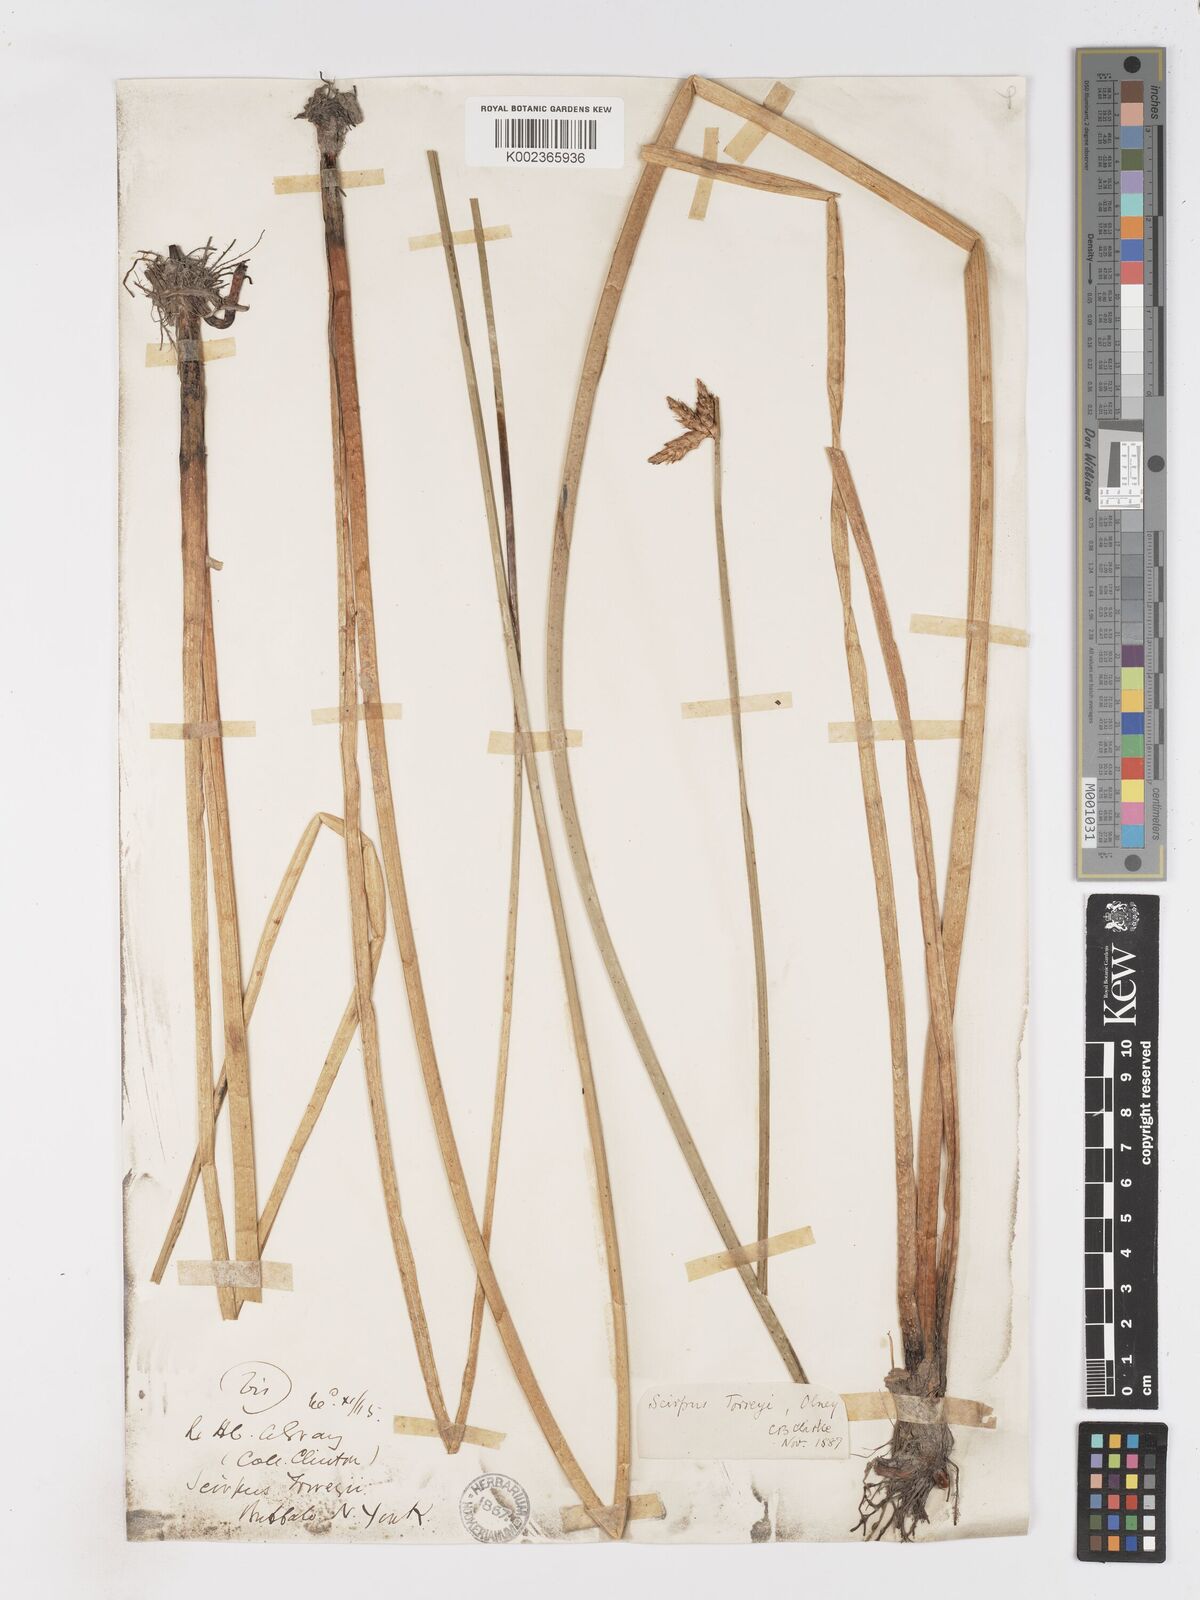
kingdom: Plantae
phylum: Tracheophyta
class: Liliopsida
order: Poales
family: Cyperaceae
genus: Schoenoplectus
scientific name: Schoenoplectus torreyi
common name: Torrey's bulrush
